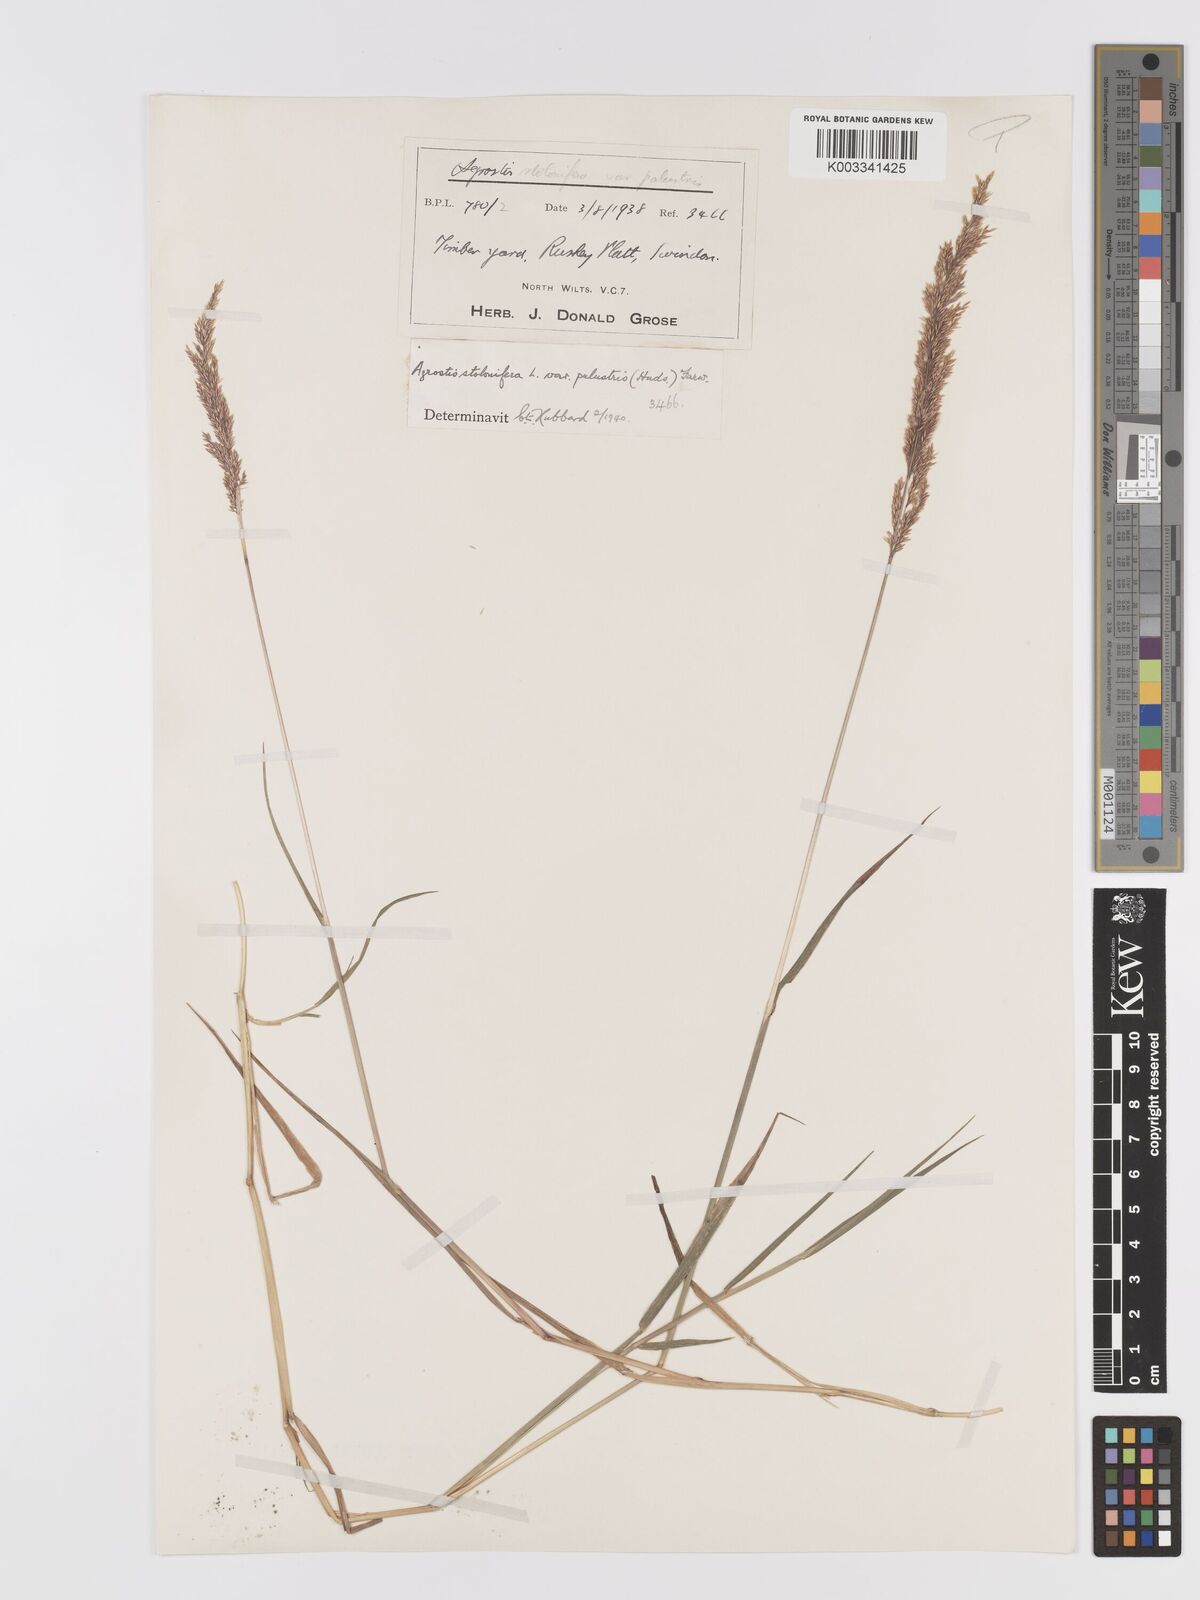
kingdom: Plantae
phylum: Tracheophyta
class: Liliopsida
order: Poales
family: Poaceae
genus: Agrostis
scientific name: Agrostis stolonifera
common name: Creeping bentgrass
